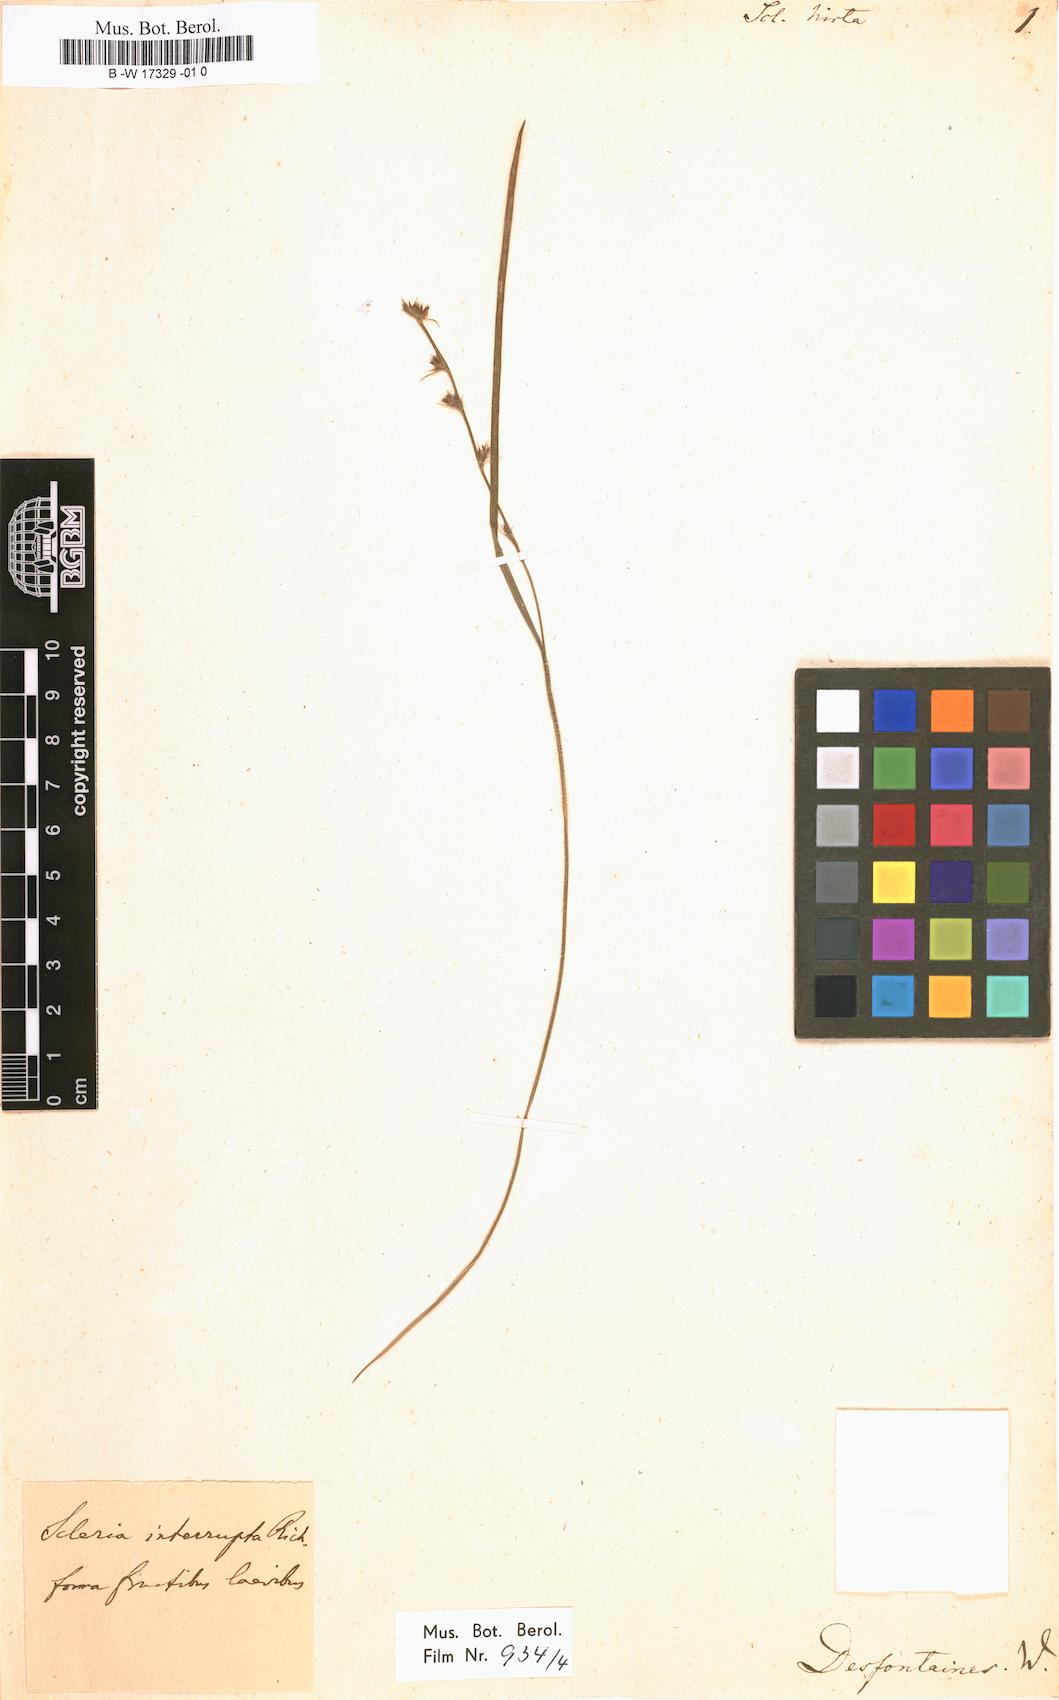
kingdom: Plantae
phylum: Tracheophyta
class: Liliopsida
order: Poales
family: Cyperaceae
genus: Scleria
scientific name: Scleria hirta
